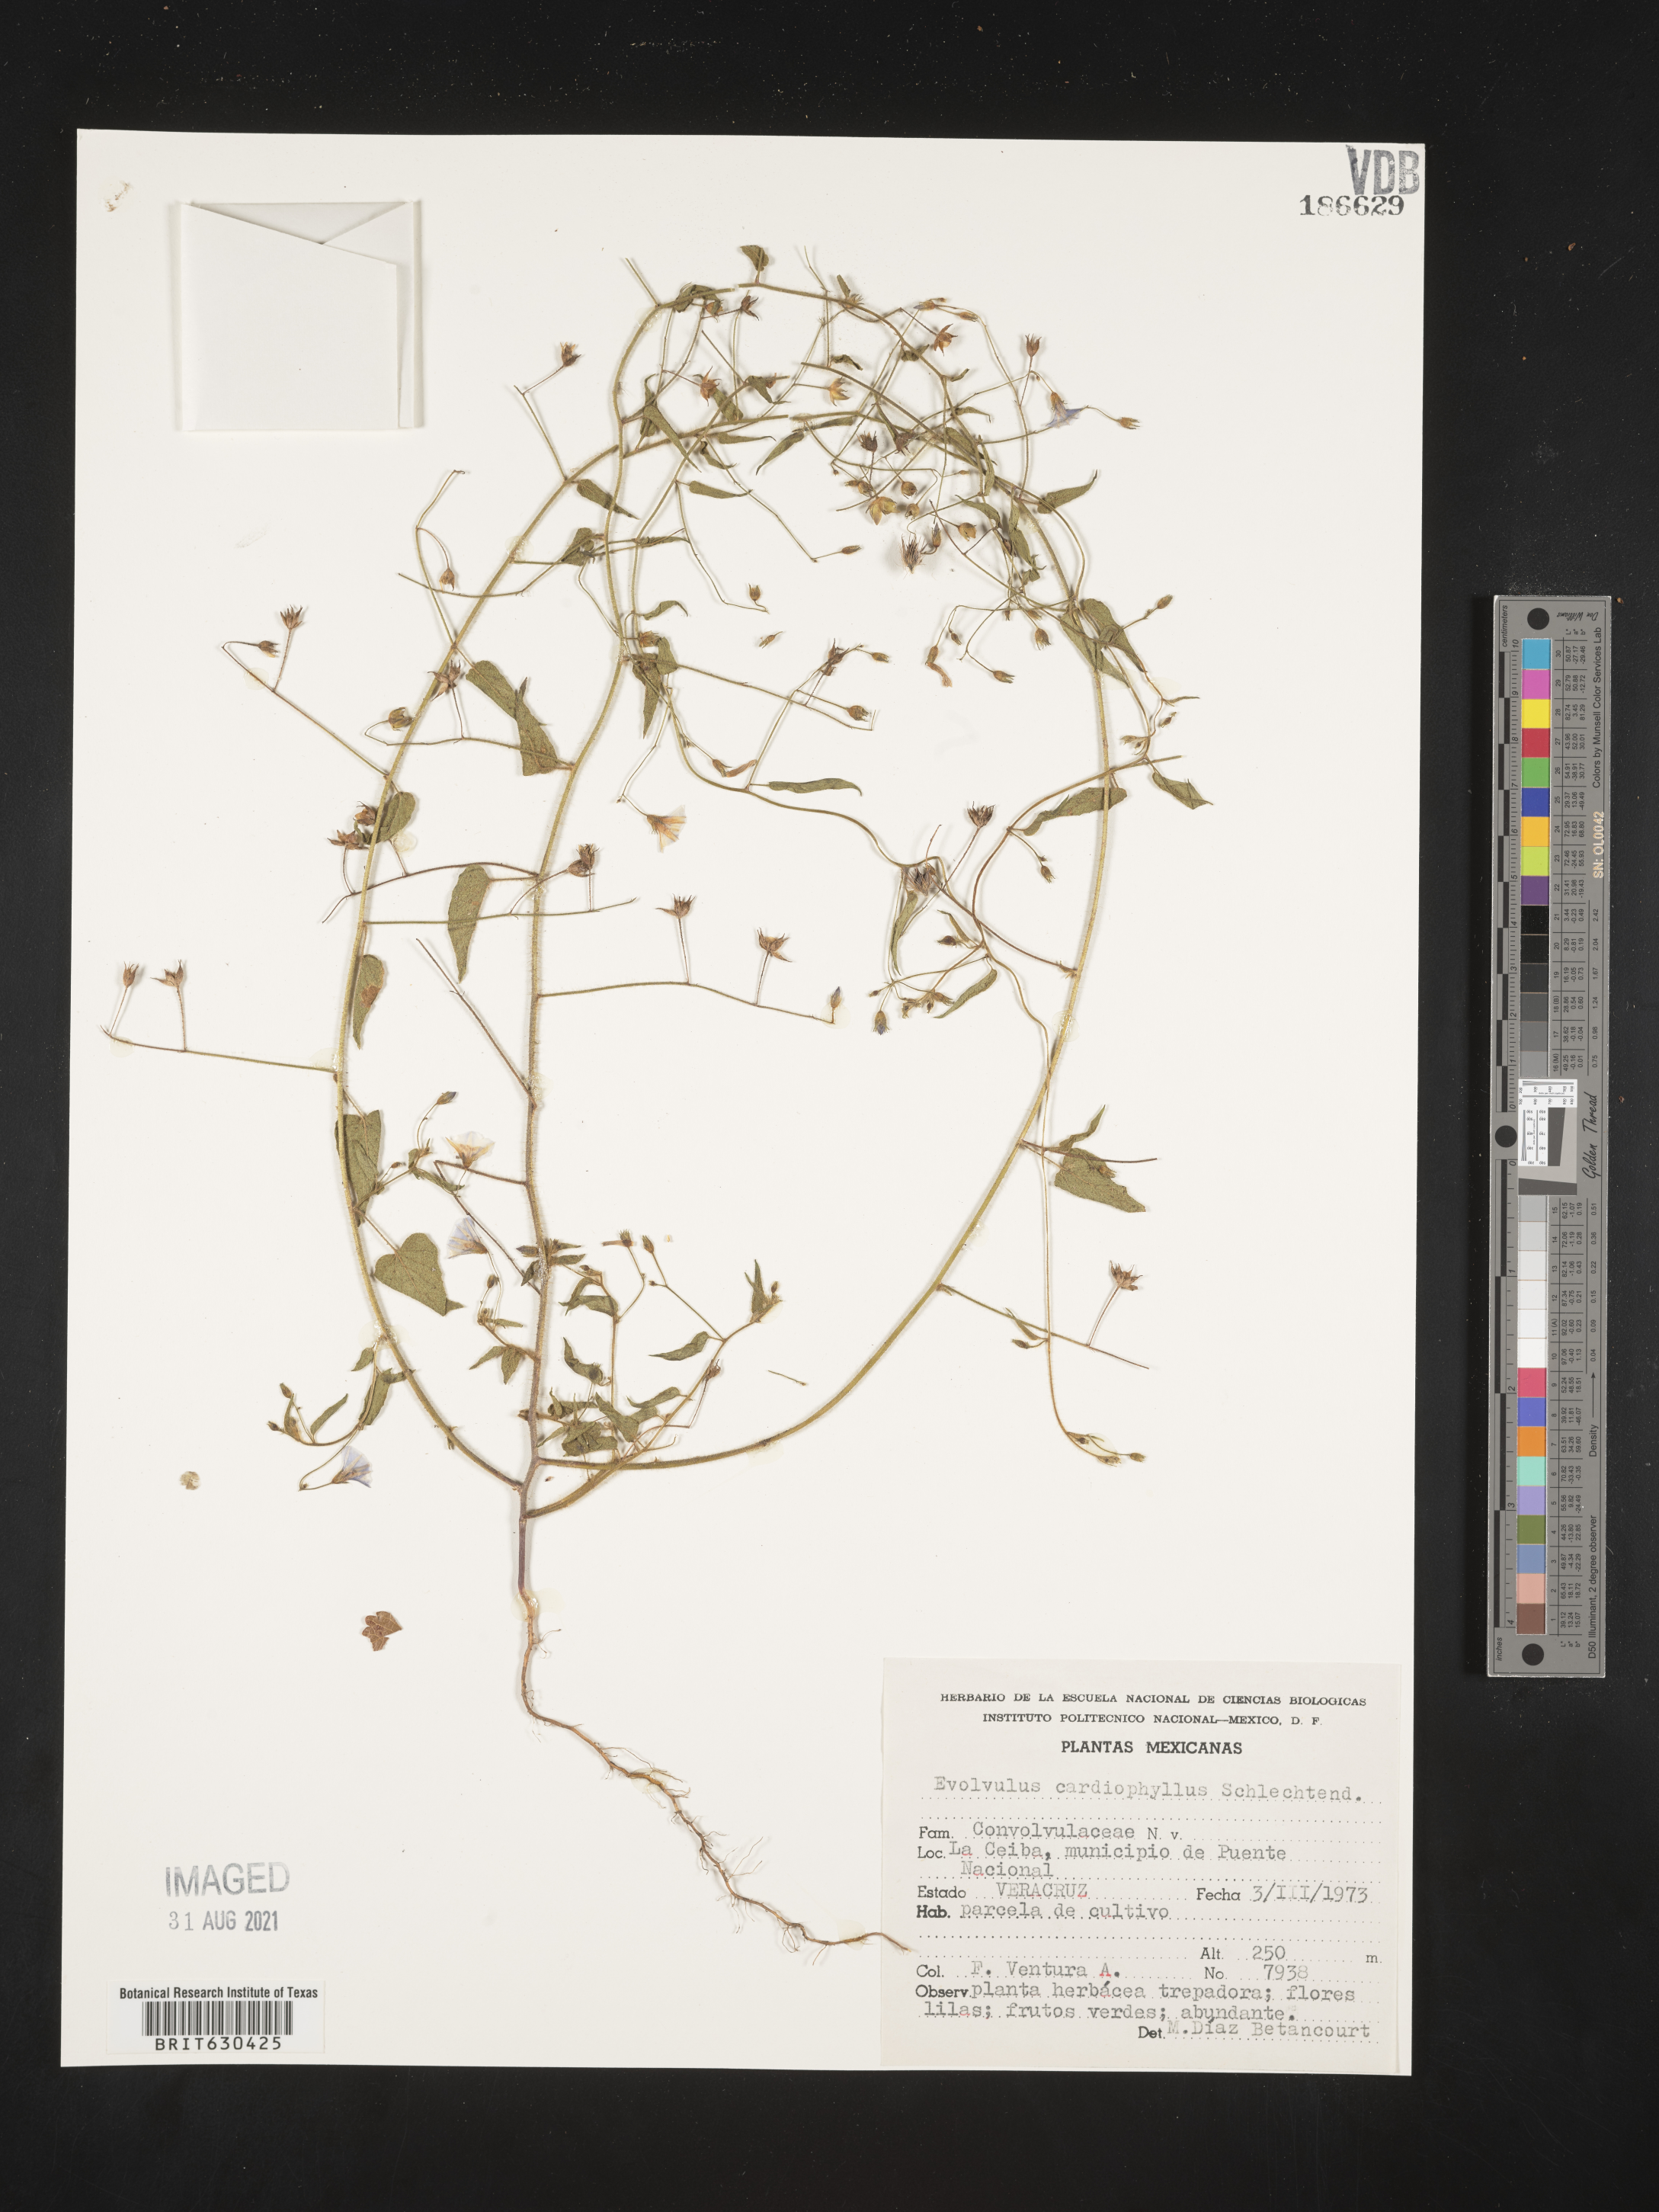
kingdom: Plantae
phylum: Tracheophyta
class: Magnoliopsida
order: Solanales
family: Convolvulaceae
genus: Evolvulus
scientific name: Evolvulus
